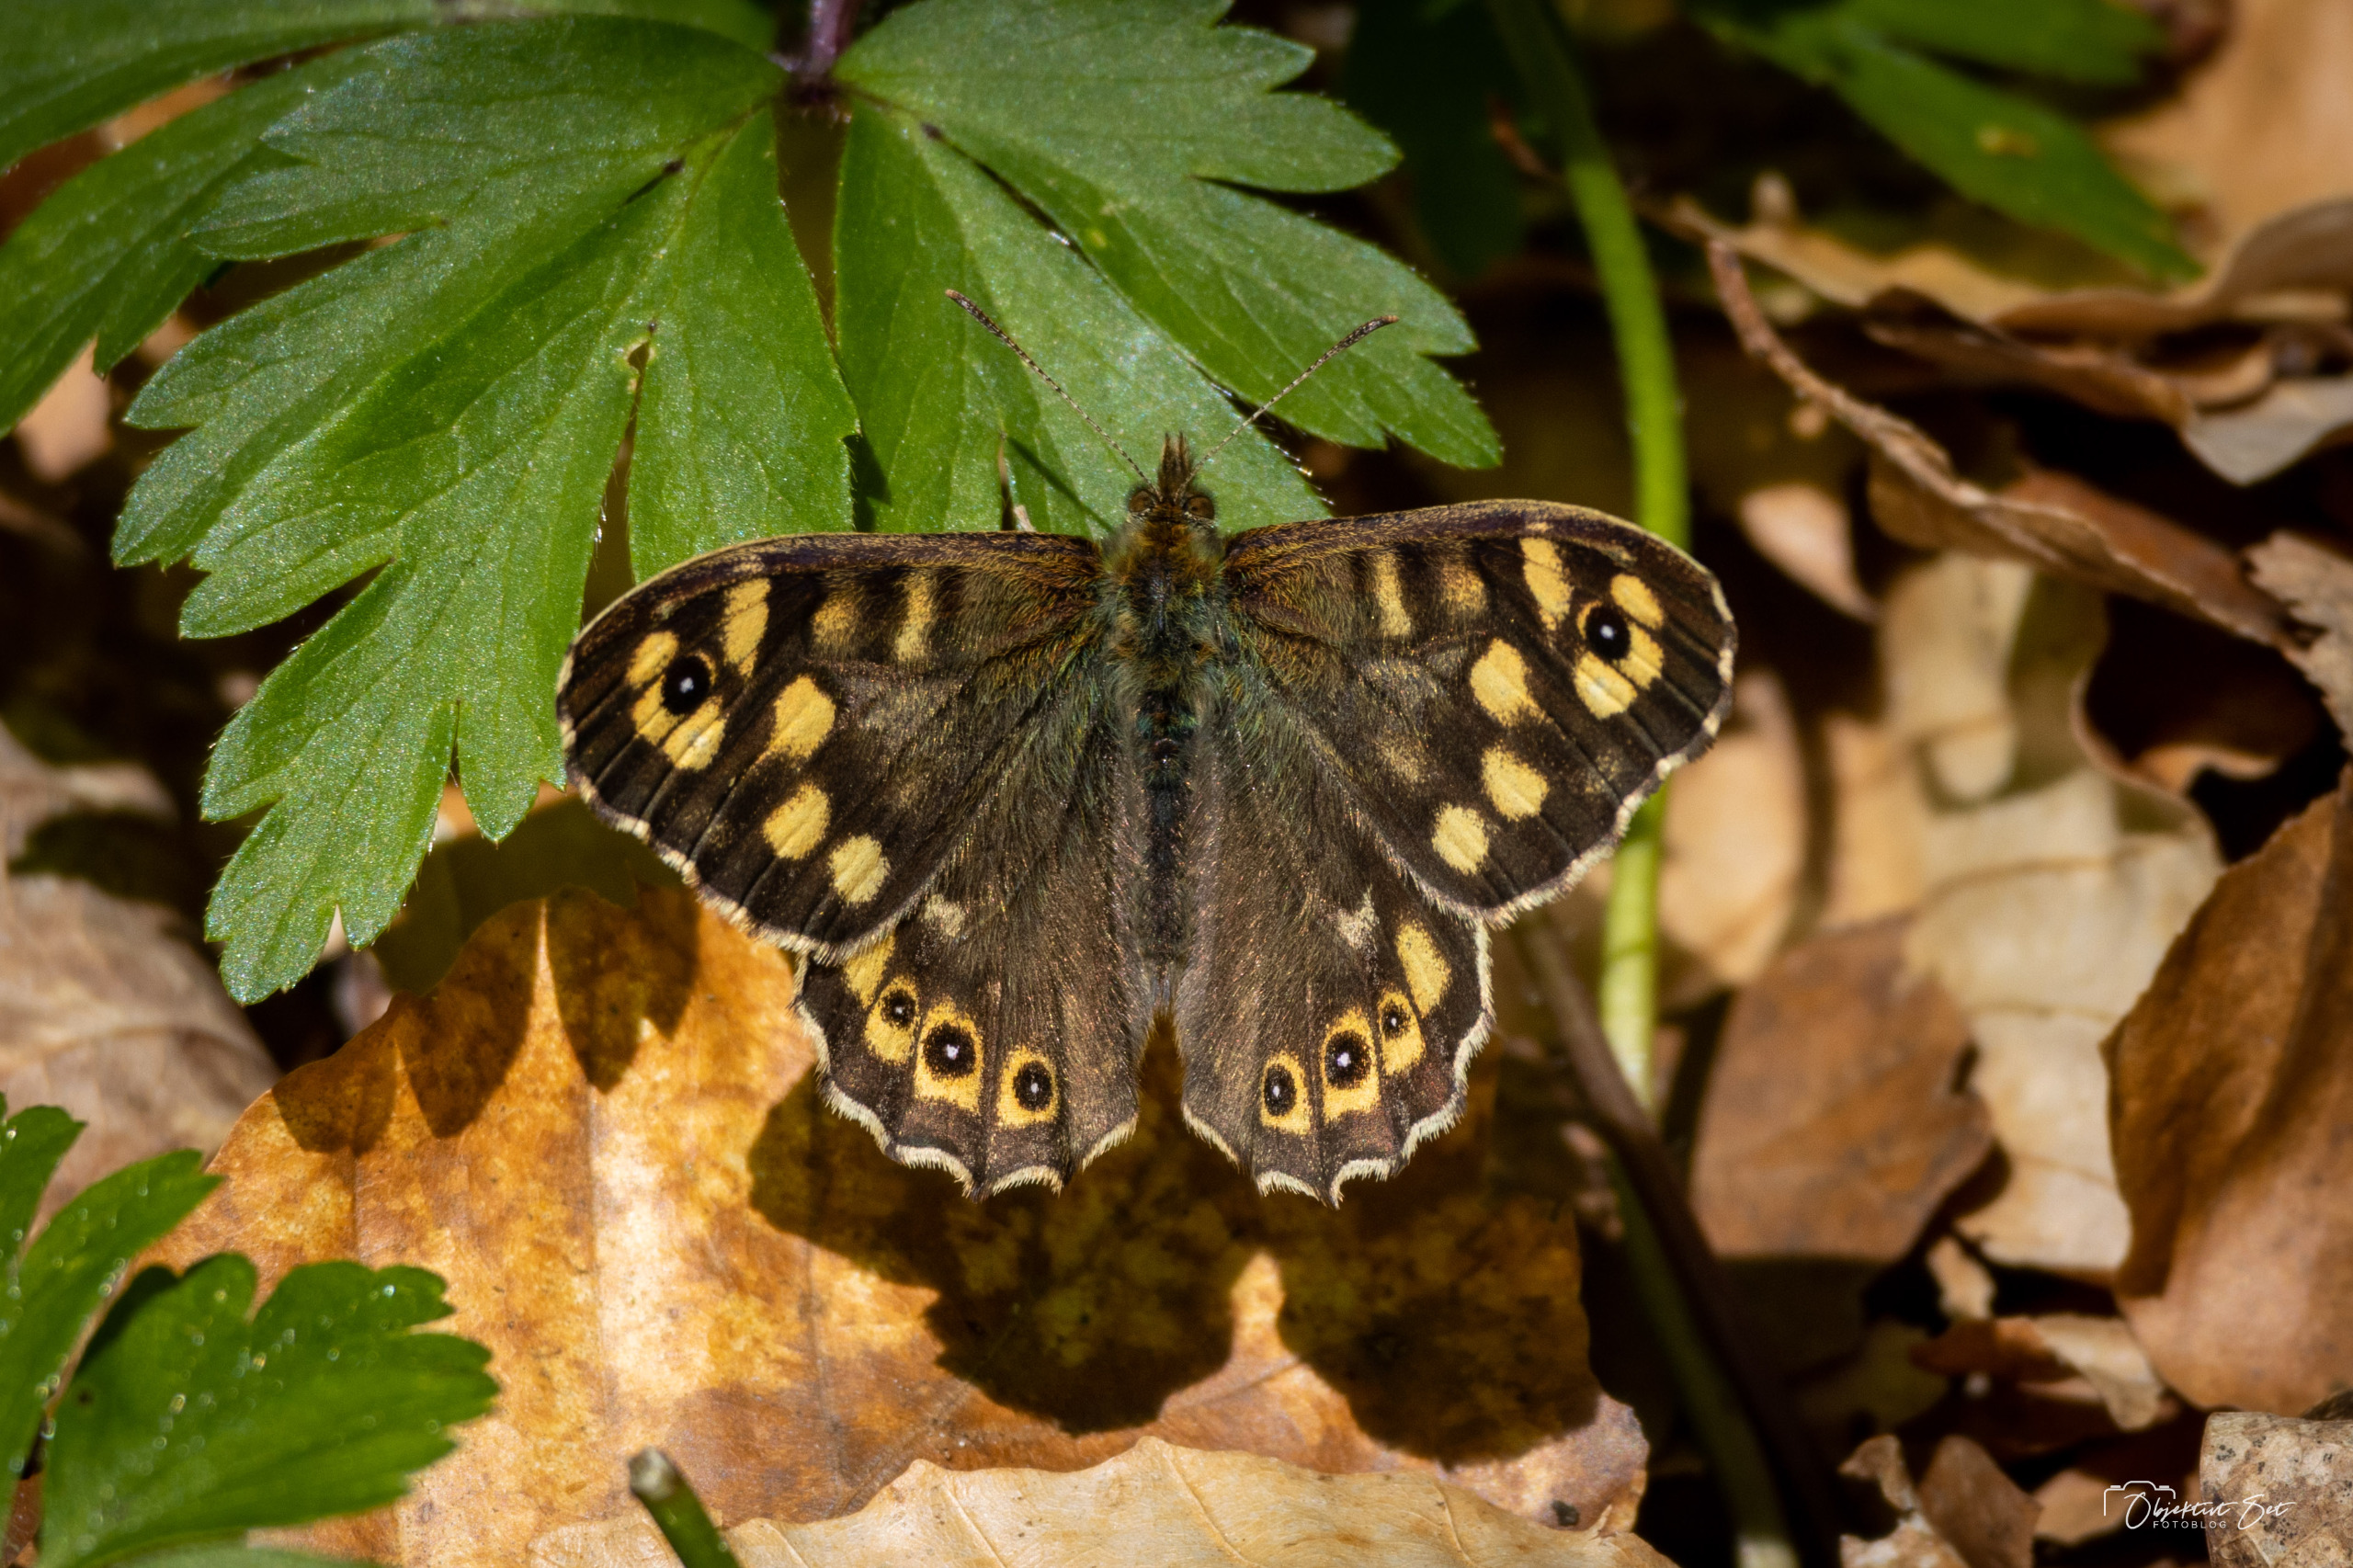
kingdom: Animalia
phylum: Arthropoda
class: Insecta
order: Lepidoptera
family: Nymphalidae
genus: Pararge
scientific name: Pararge aegeria
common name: Skovrandøje
